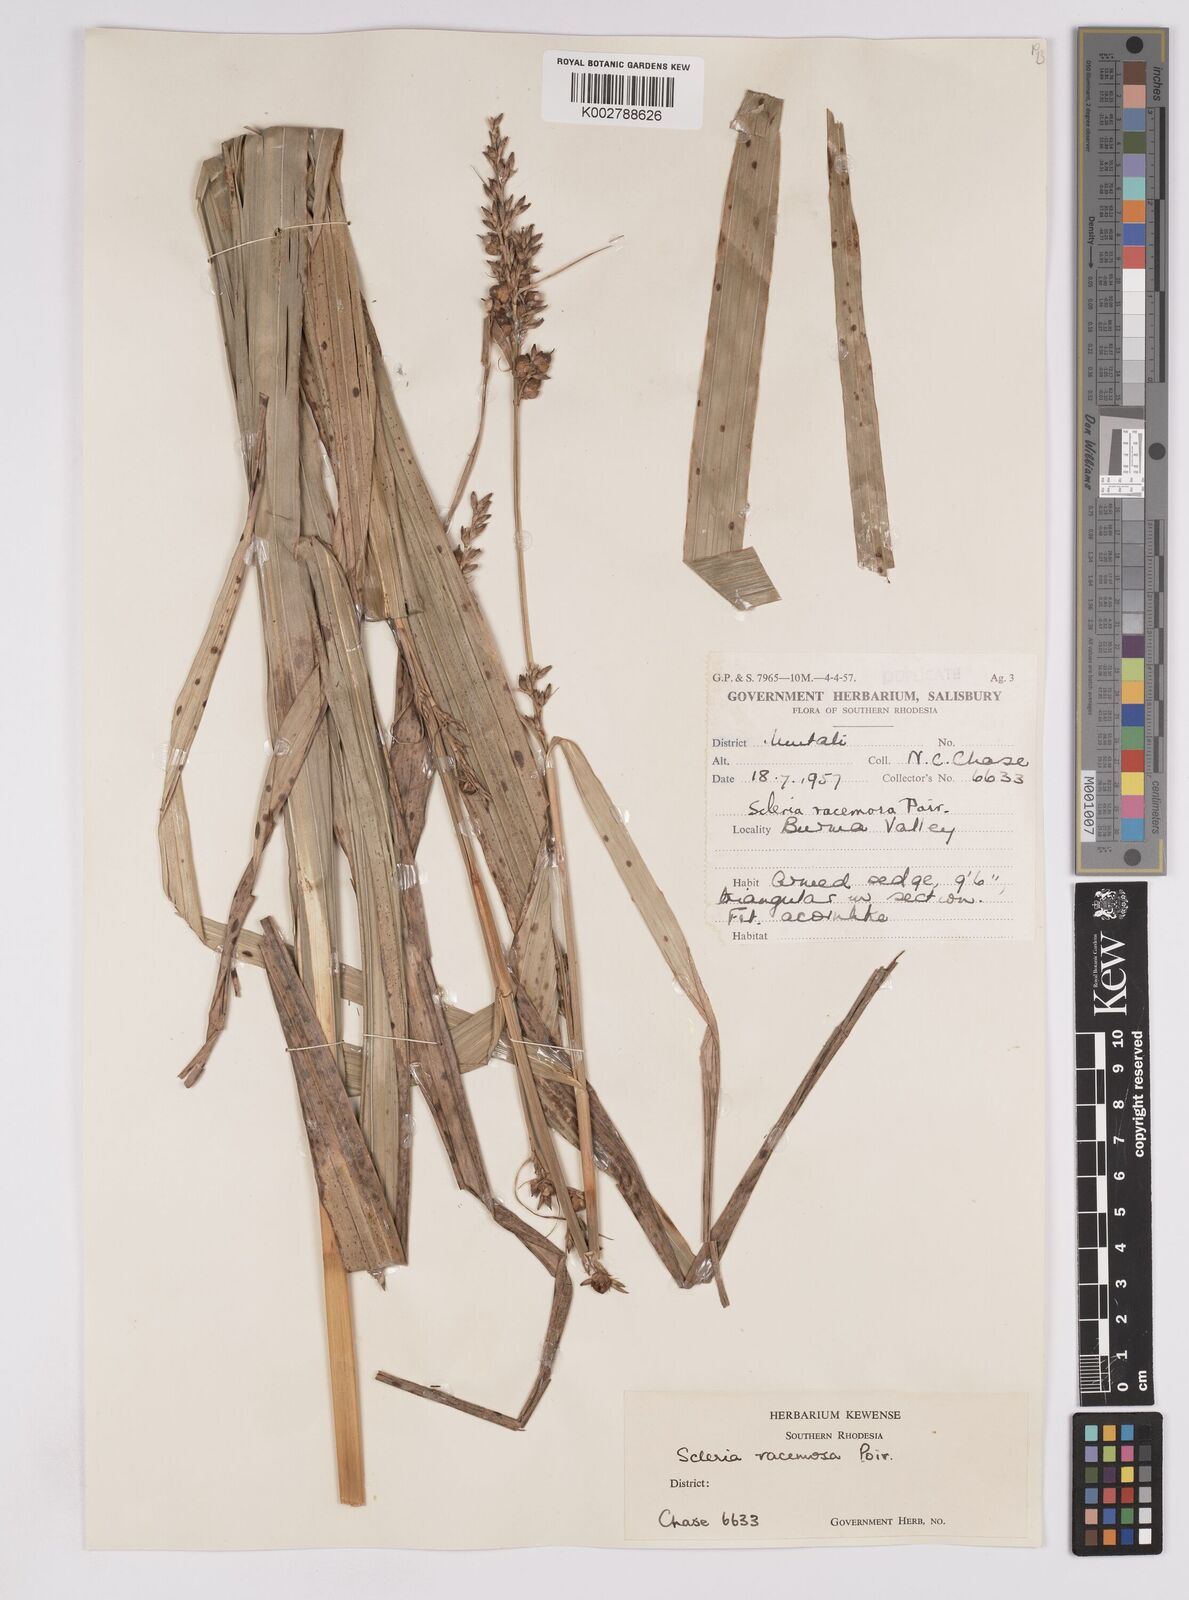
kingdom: Plantae
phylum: Tracheophyta
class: Liliopsida
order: Poales
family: Cyperaceae
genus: Scleria
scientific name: Scleria racemosa
